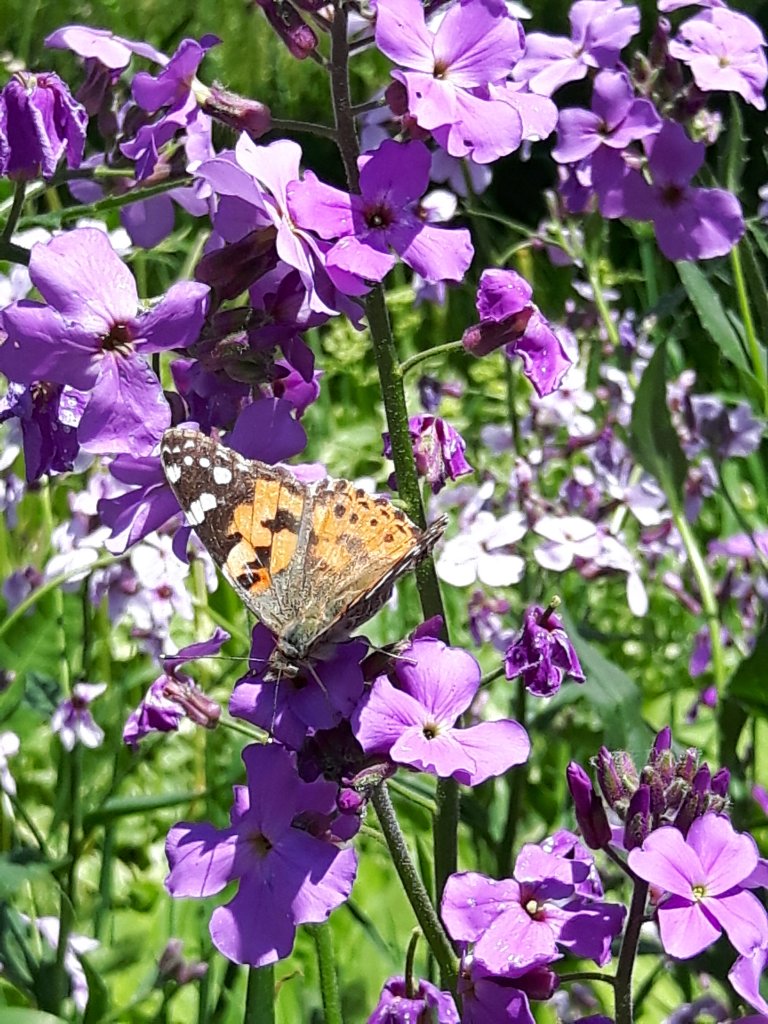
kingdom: Animalia
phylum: Arthropoda
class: Insecta
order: Lepidoptera
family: Nymphalidae
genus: Vanessa
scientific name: Vanessa cardui
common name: Painted Lady
